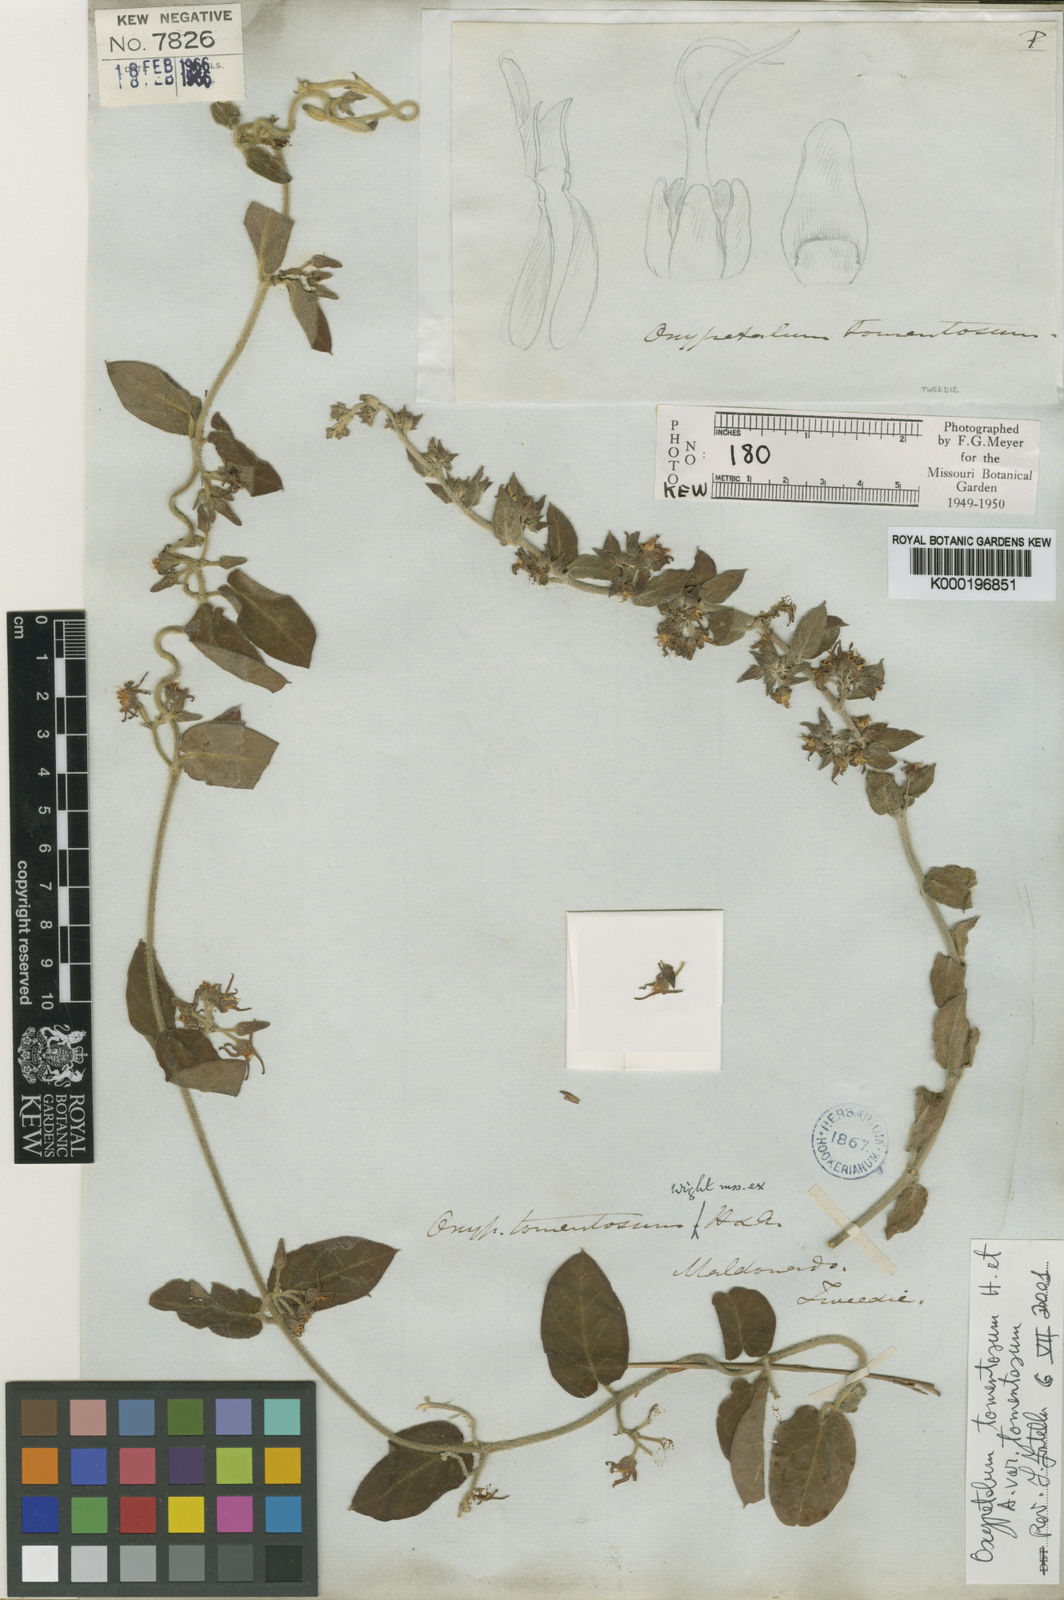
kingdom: Plantae
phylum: Tracheophyta
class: Magnoliopsida
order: Gentianales
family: Apocynaceae
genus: Oxypetalum
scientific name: Oxypetalum tomentosum
